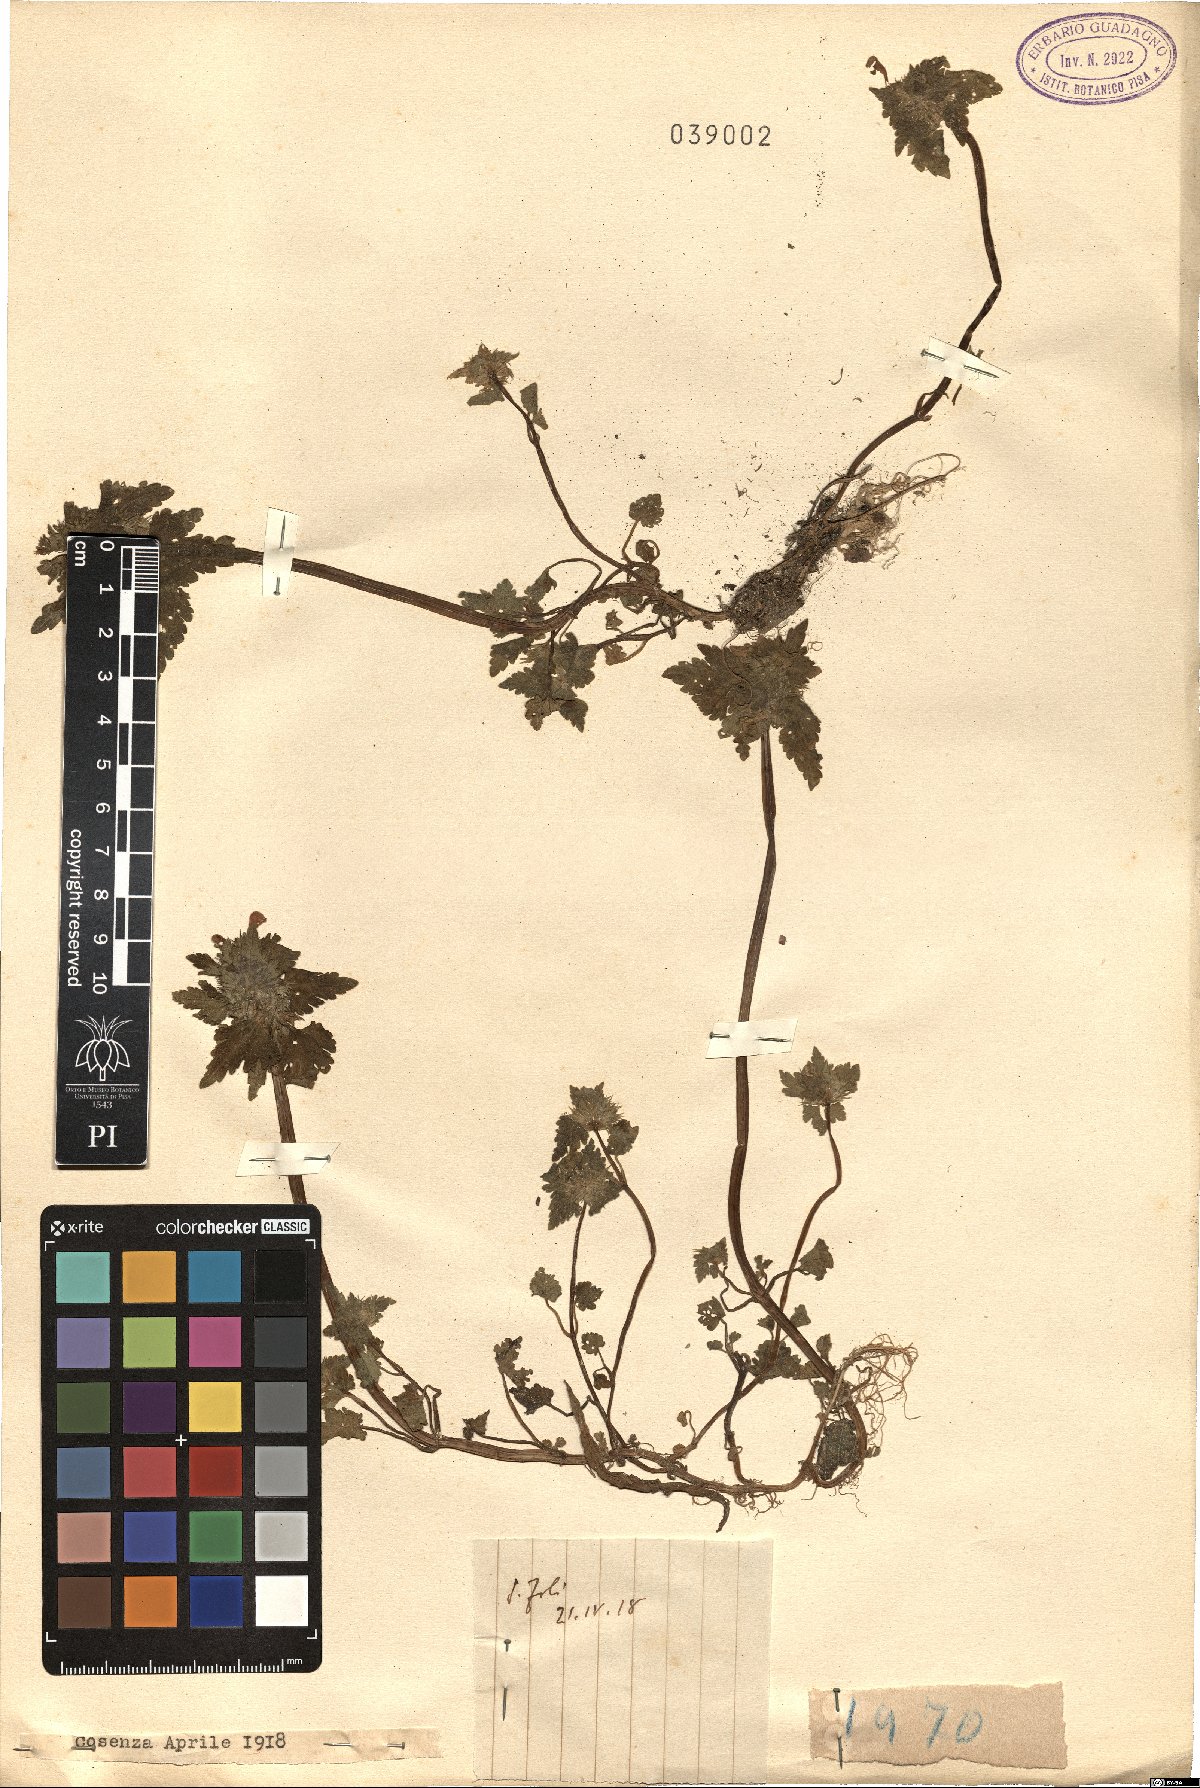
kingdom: Plantae
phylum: Tracheophyta
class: Magnoliopsida
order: Lamiales
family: Lamiaceae
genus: Lamium
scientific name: Lamium
